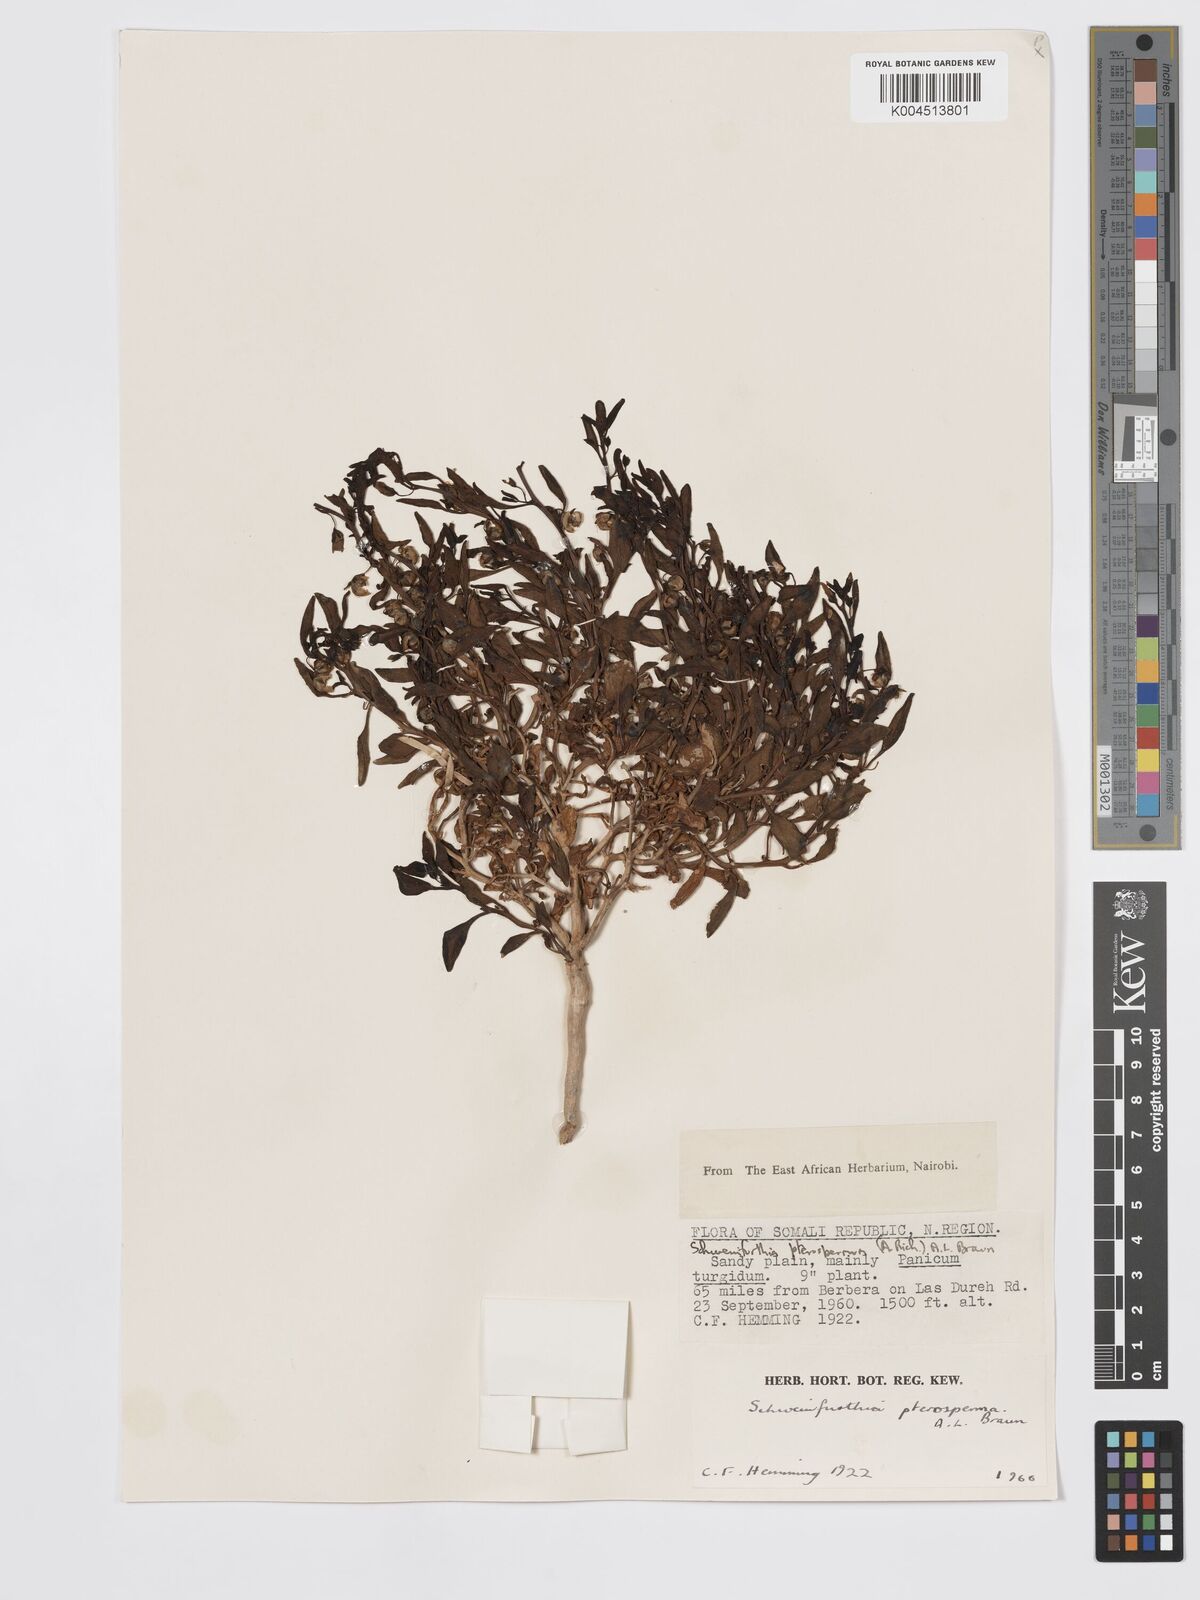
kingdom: Plantae
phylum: Tracheophyta
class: Magnoliopsida
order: Lamiales
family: Plantaginaceae
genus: Schweinfurthia
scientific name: Schweinfurthia pterosperma
